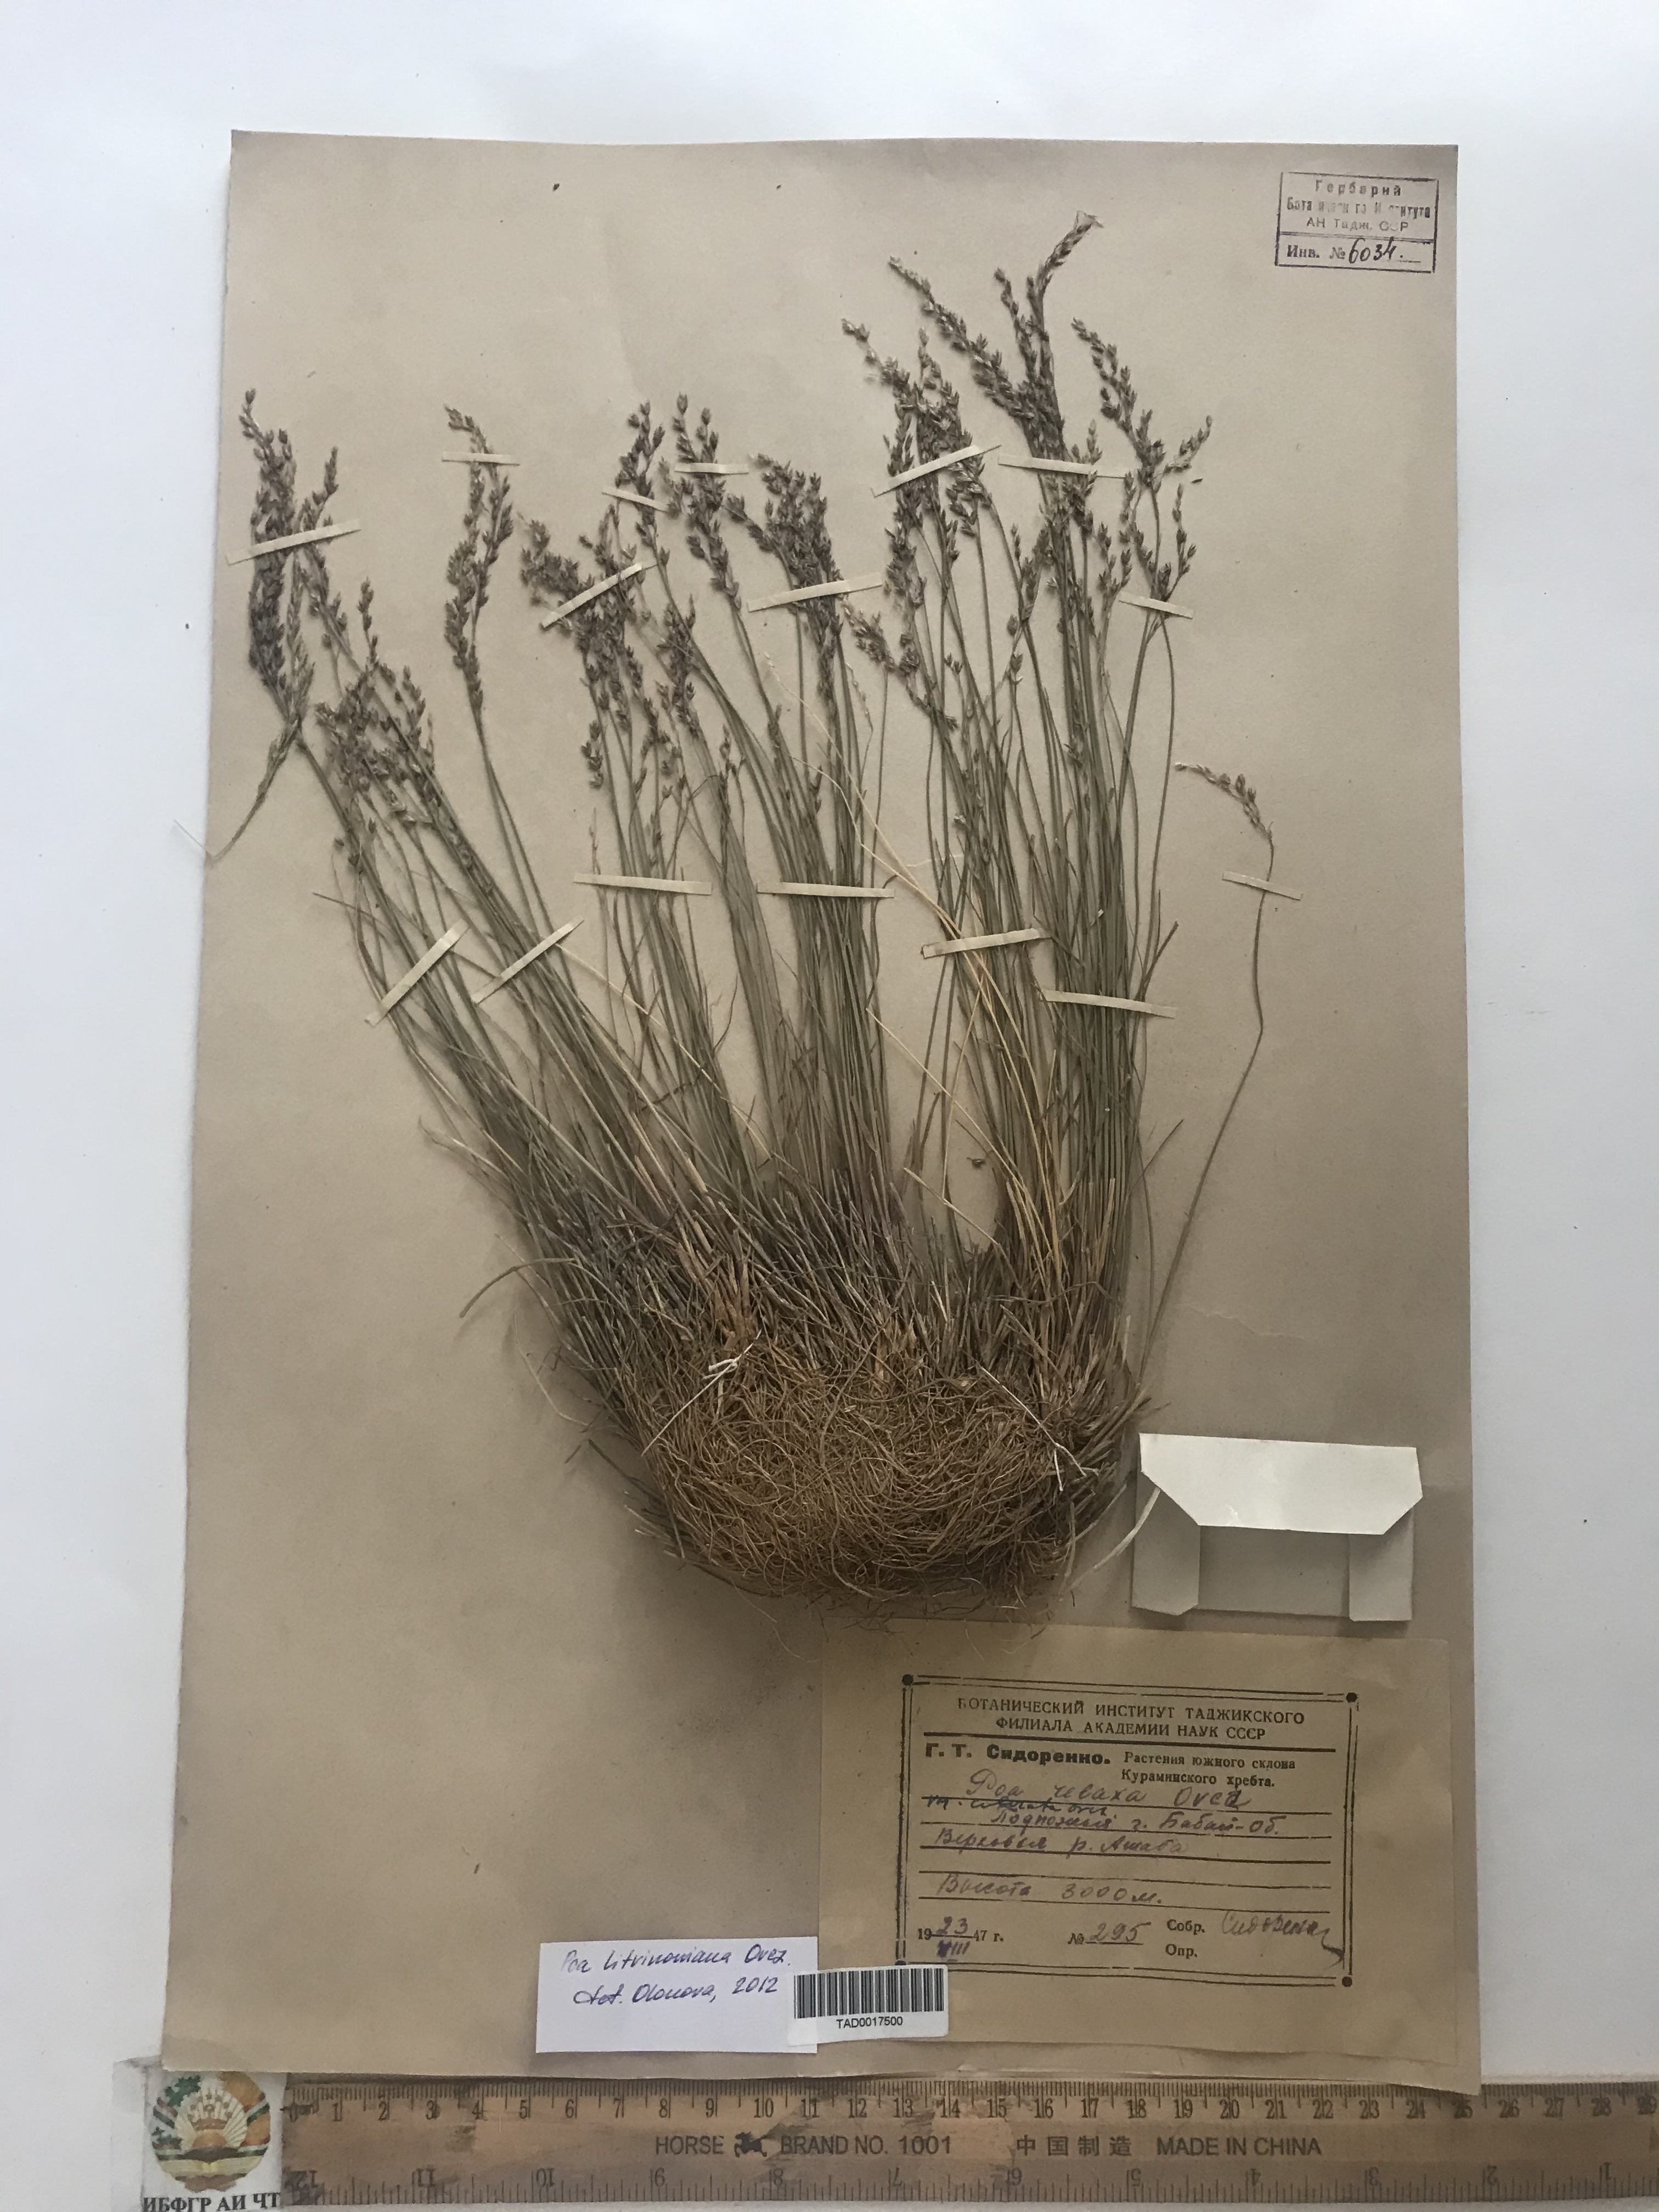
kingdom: Plantae
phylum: Tracheophyta
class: Liliopsida
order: Poales
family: Poaceae
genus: Poa
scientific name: Poa glauca
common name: Glaucous bluegrass
